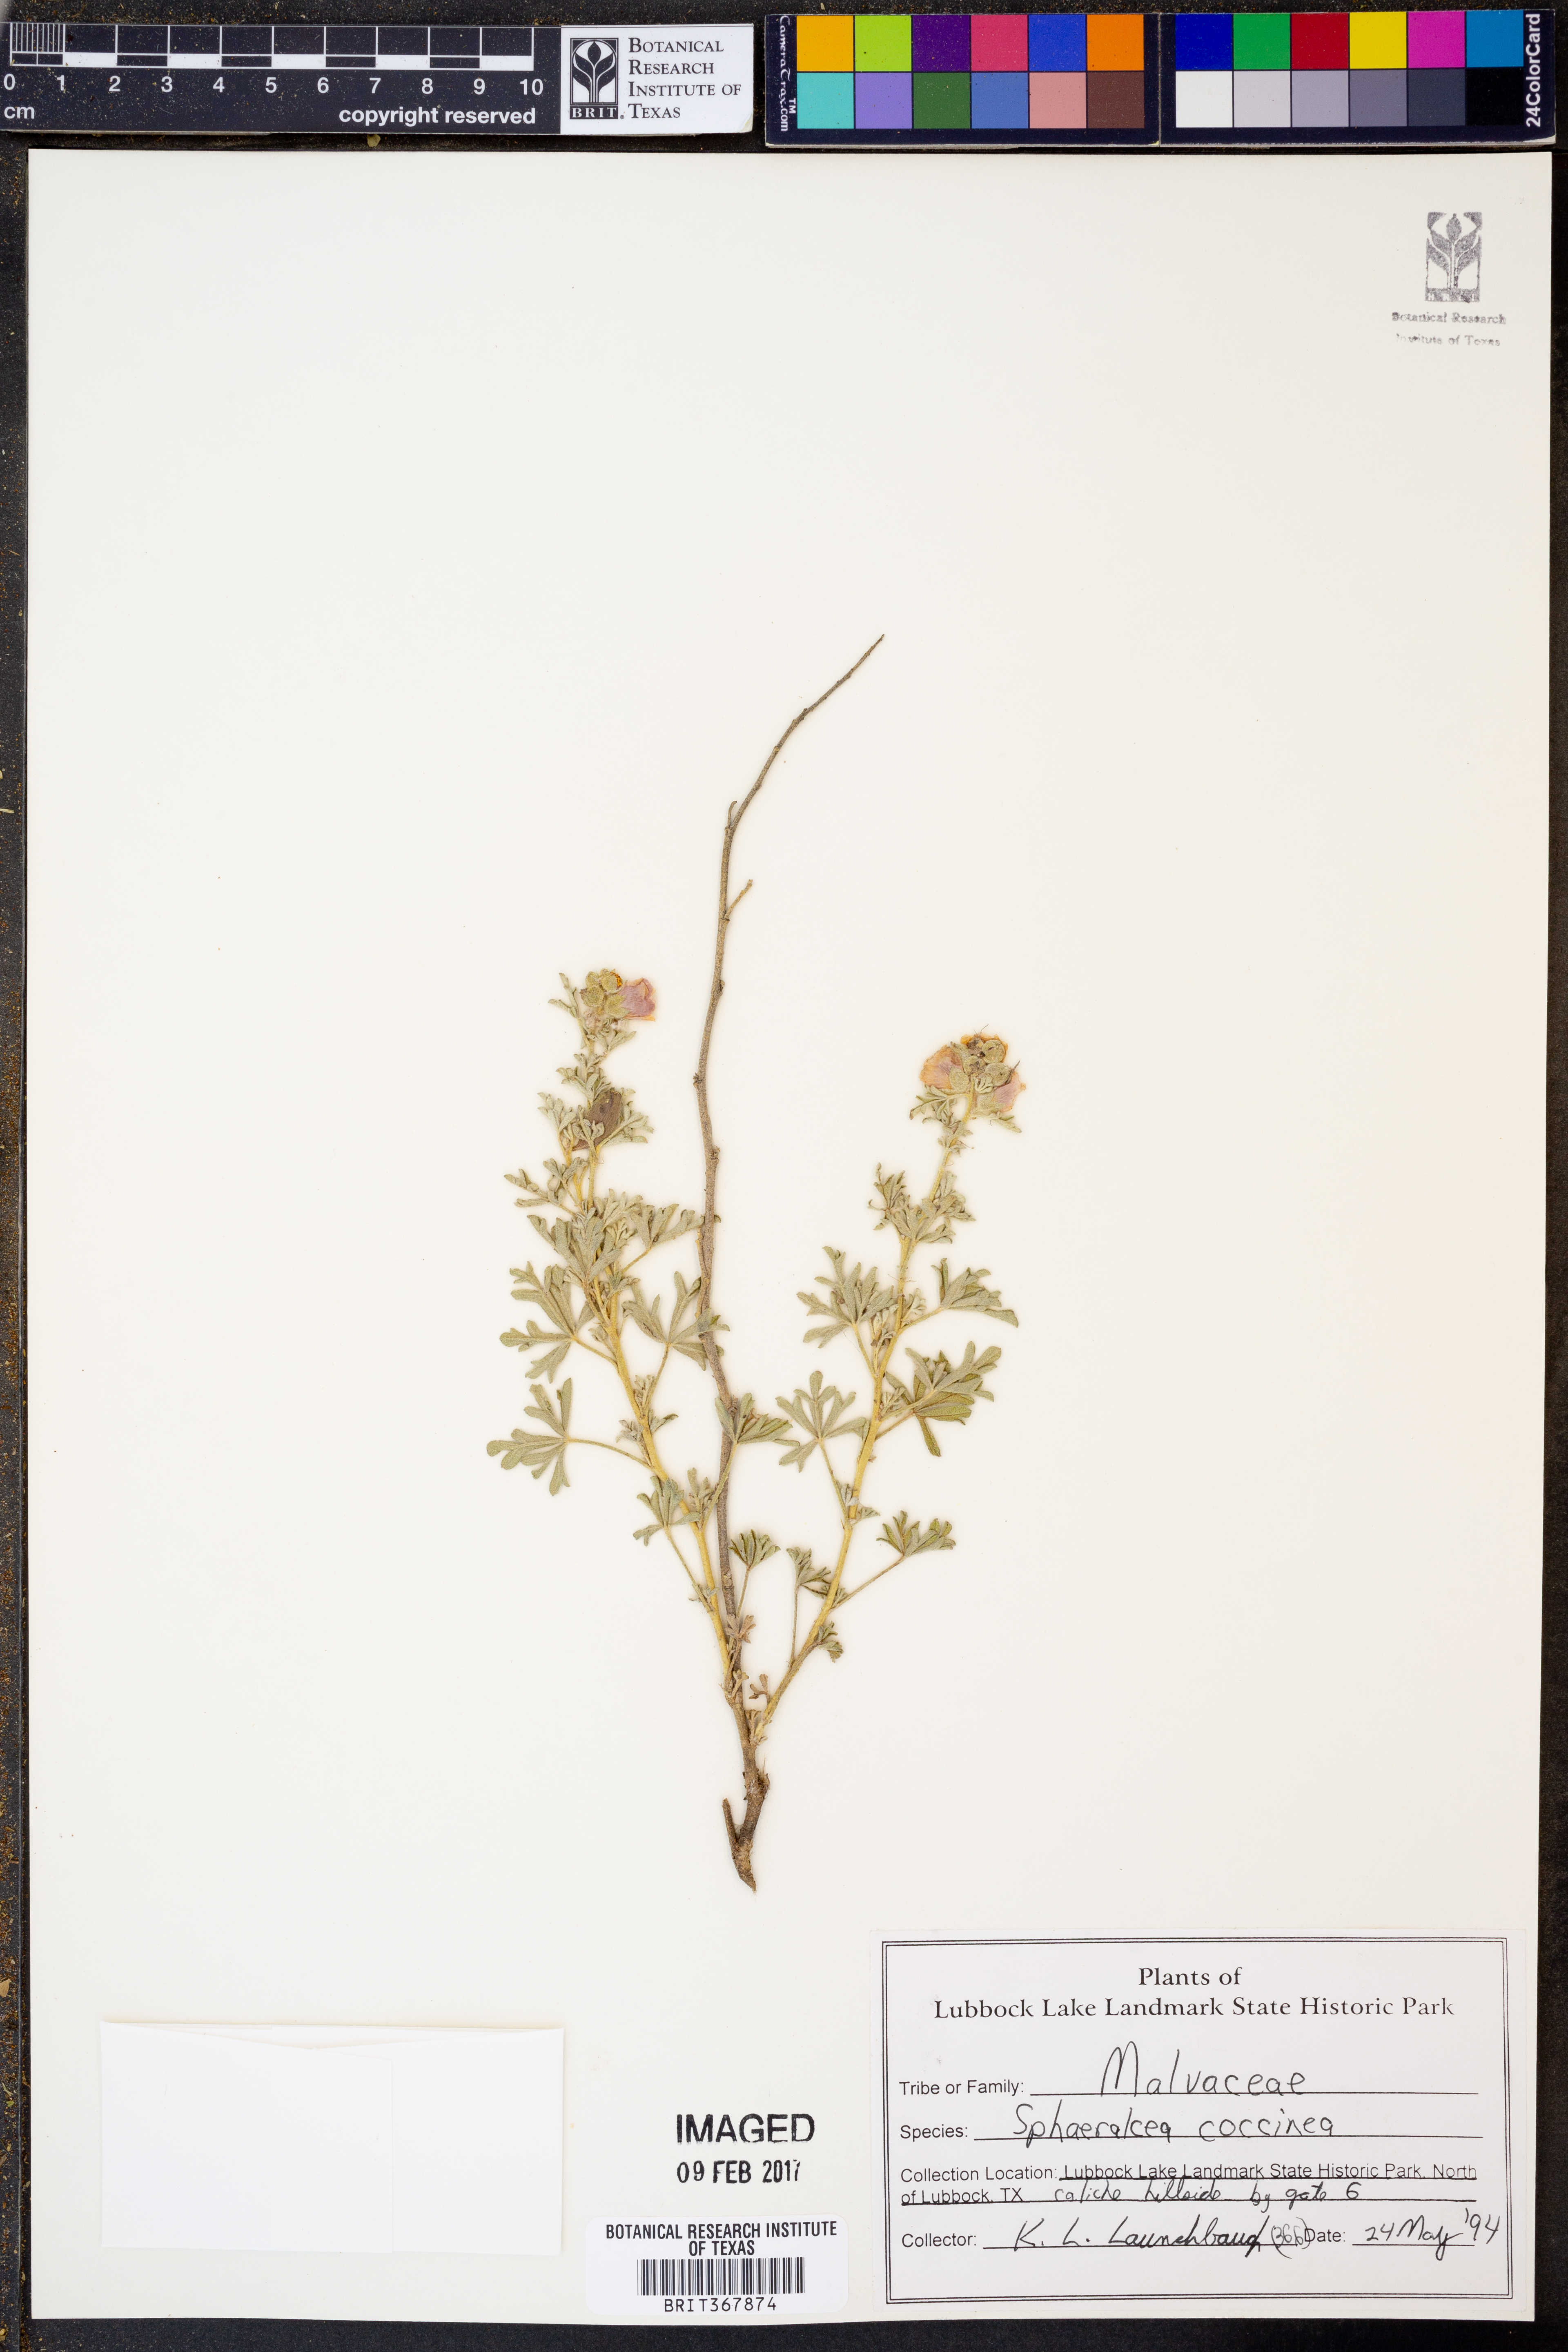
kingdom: Plantae
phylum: Tracheophyta
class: Magnoliopsida
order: Malvales
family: Malvaceae
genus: Sphaeralcea
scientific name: Sphaeralcea coccinea
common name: Moss-rose
